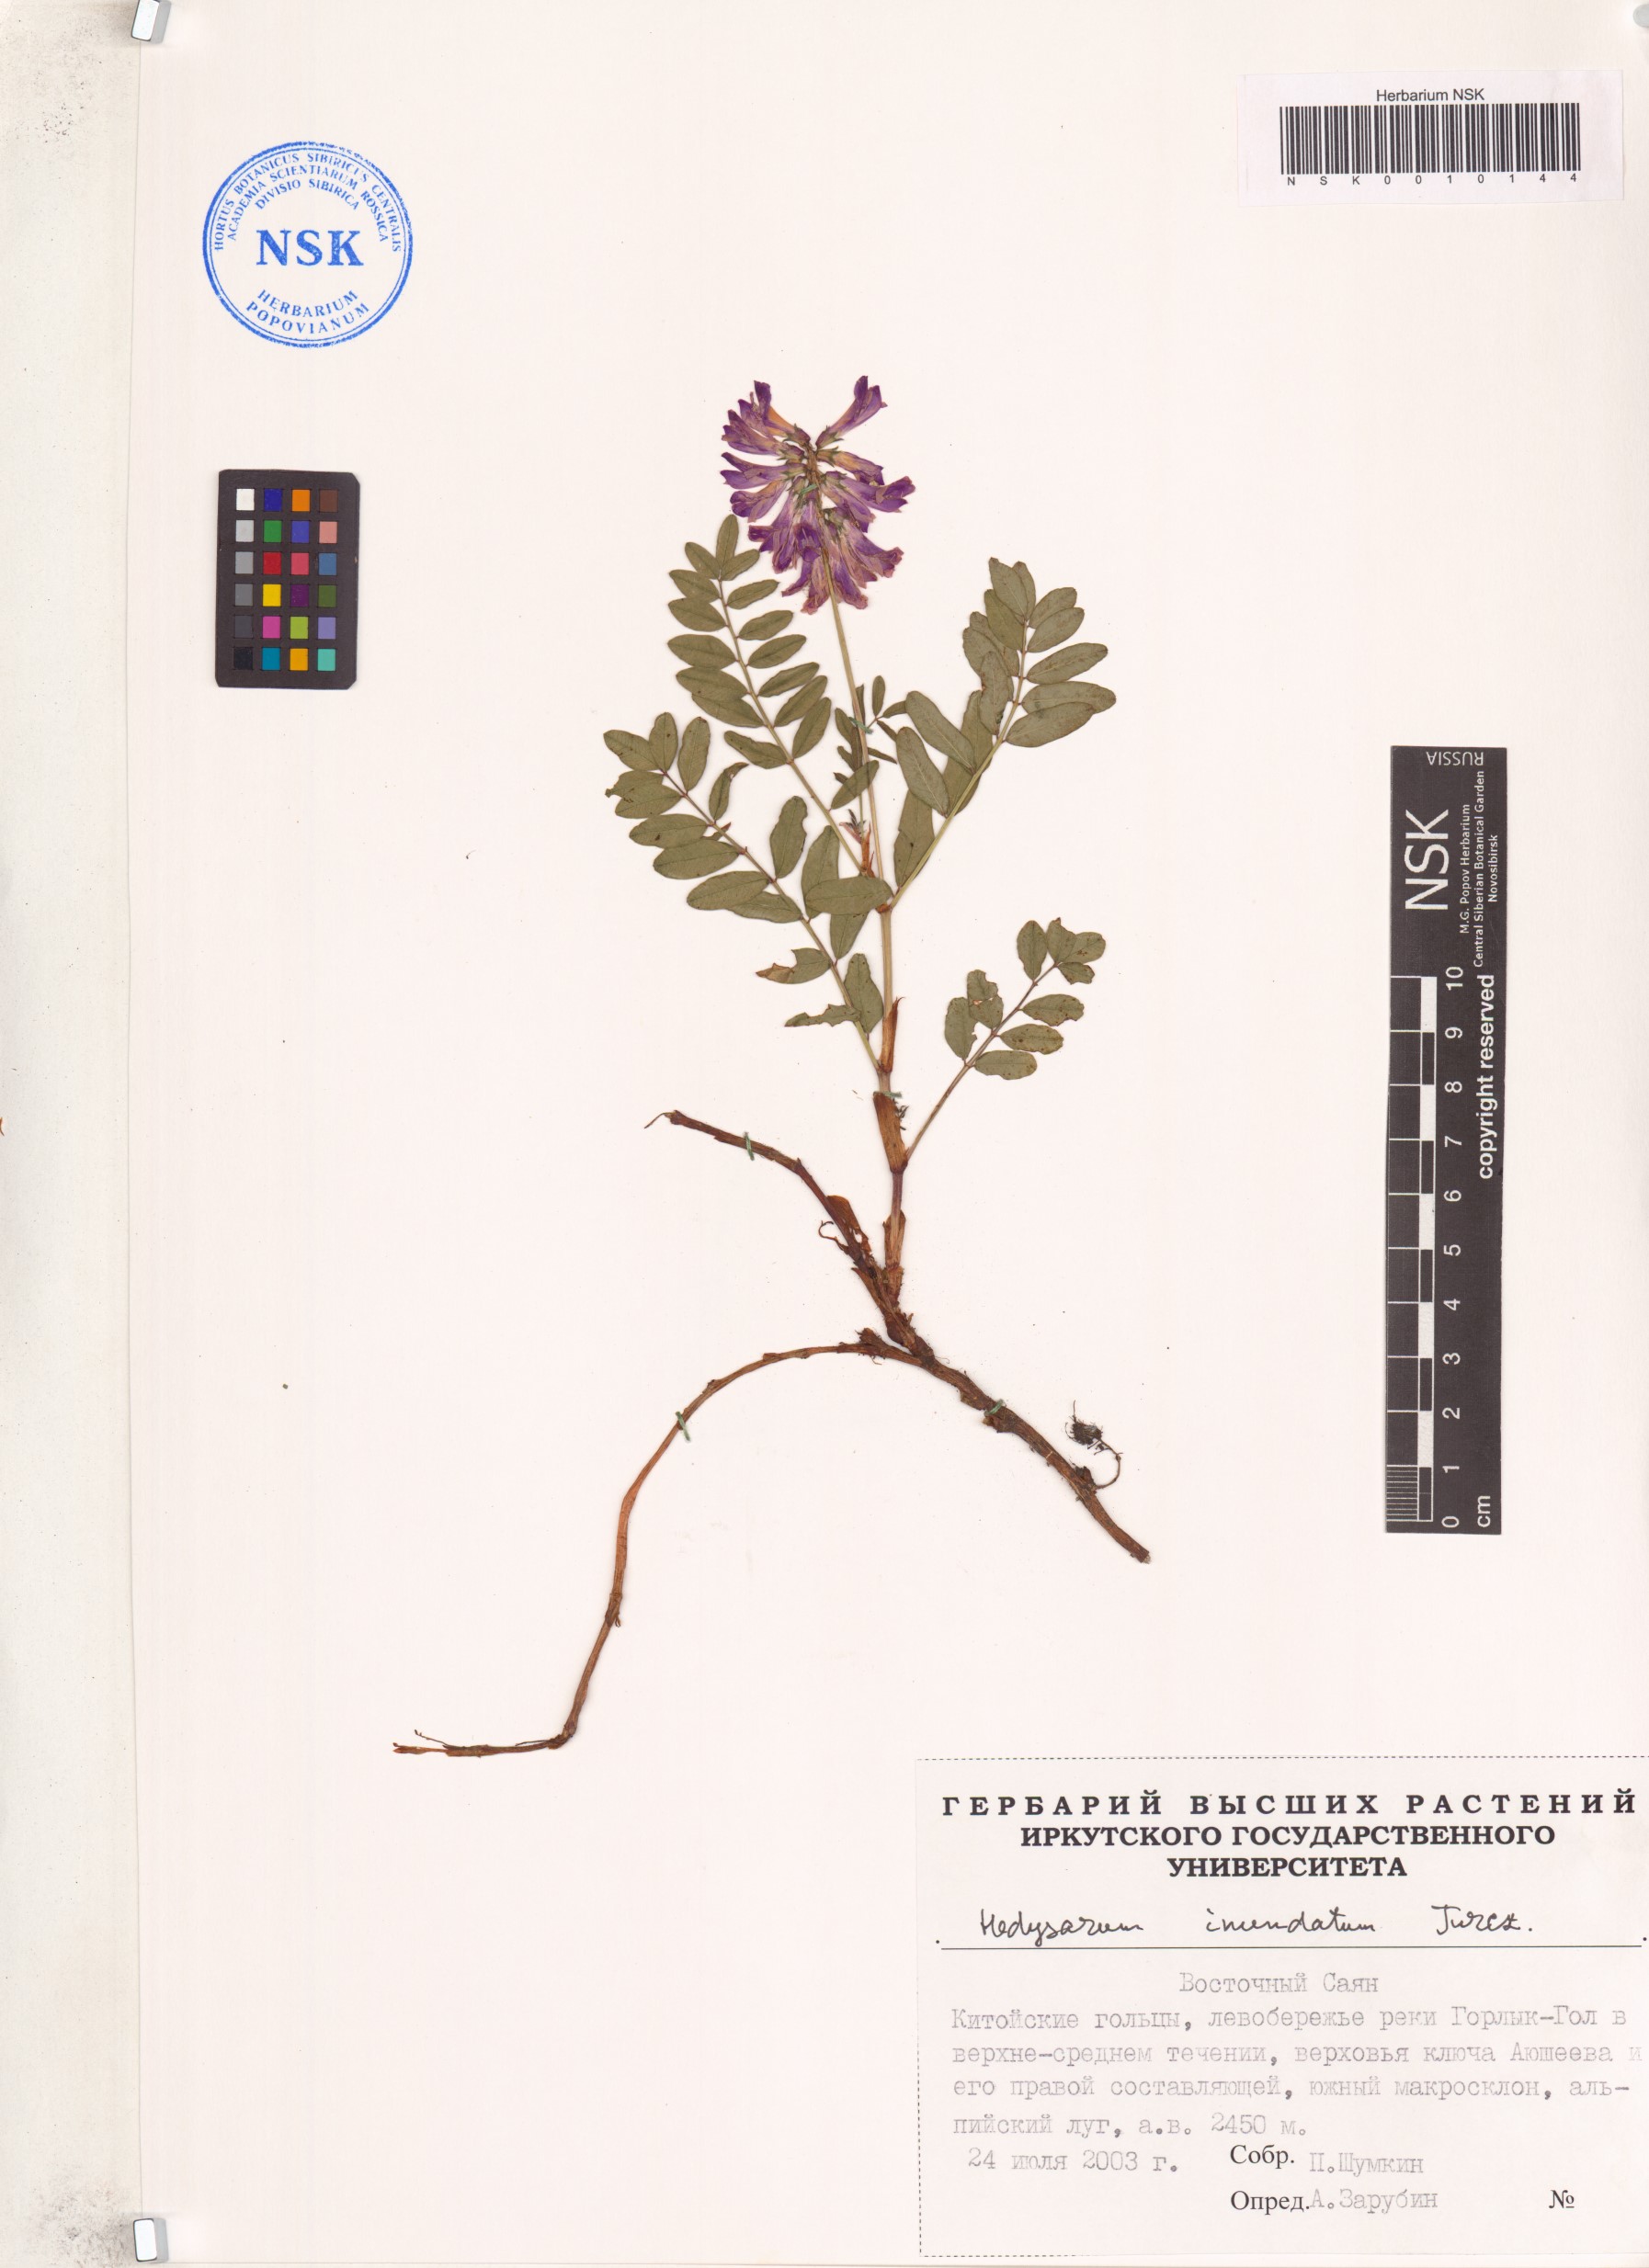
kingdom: Plantae
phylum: Tracheophyta
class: Magnoliopsida
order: Fabales
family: Fabaceae
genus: Hedysarum
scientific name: Hedysarum inundatum
